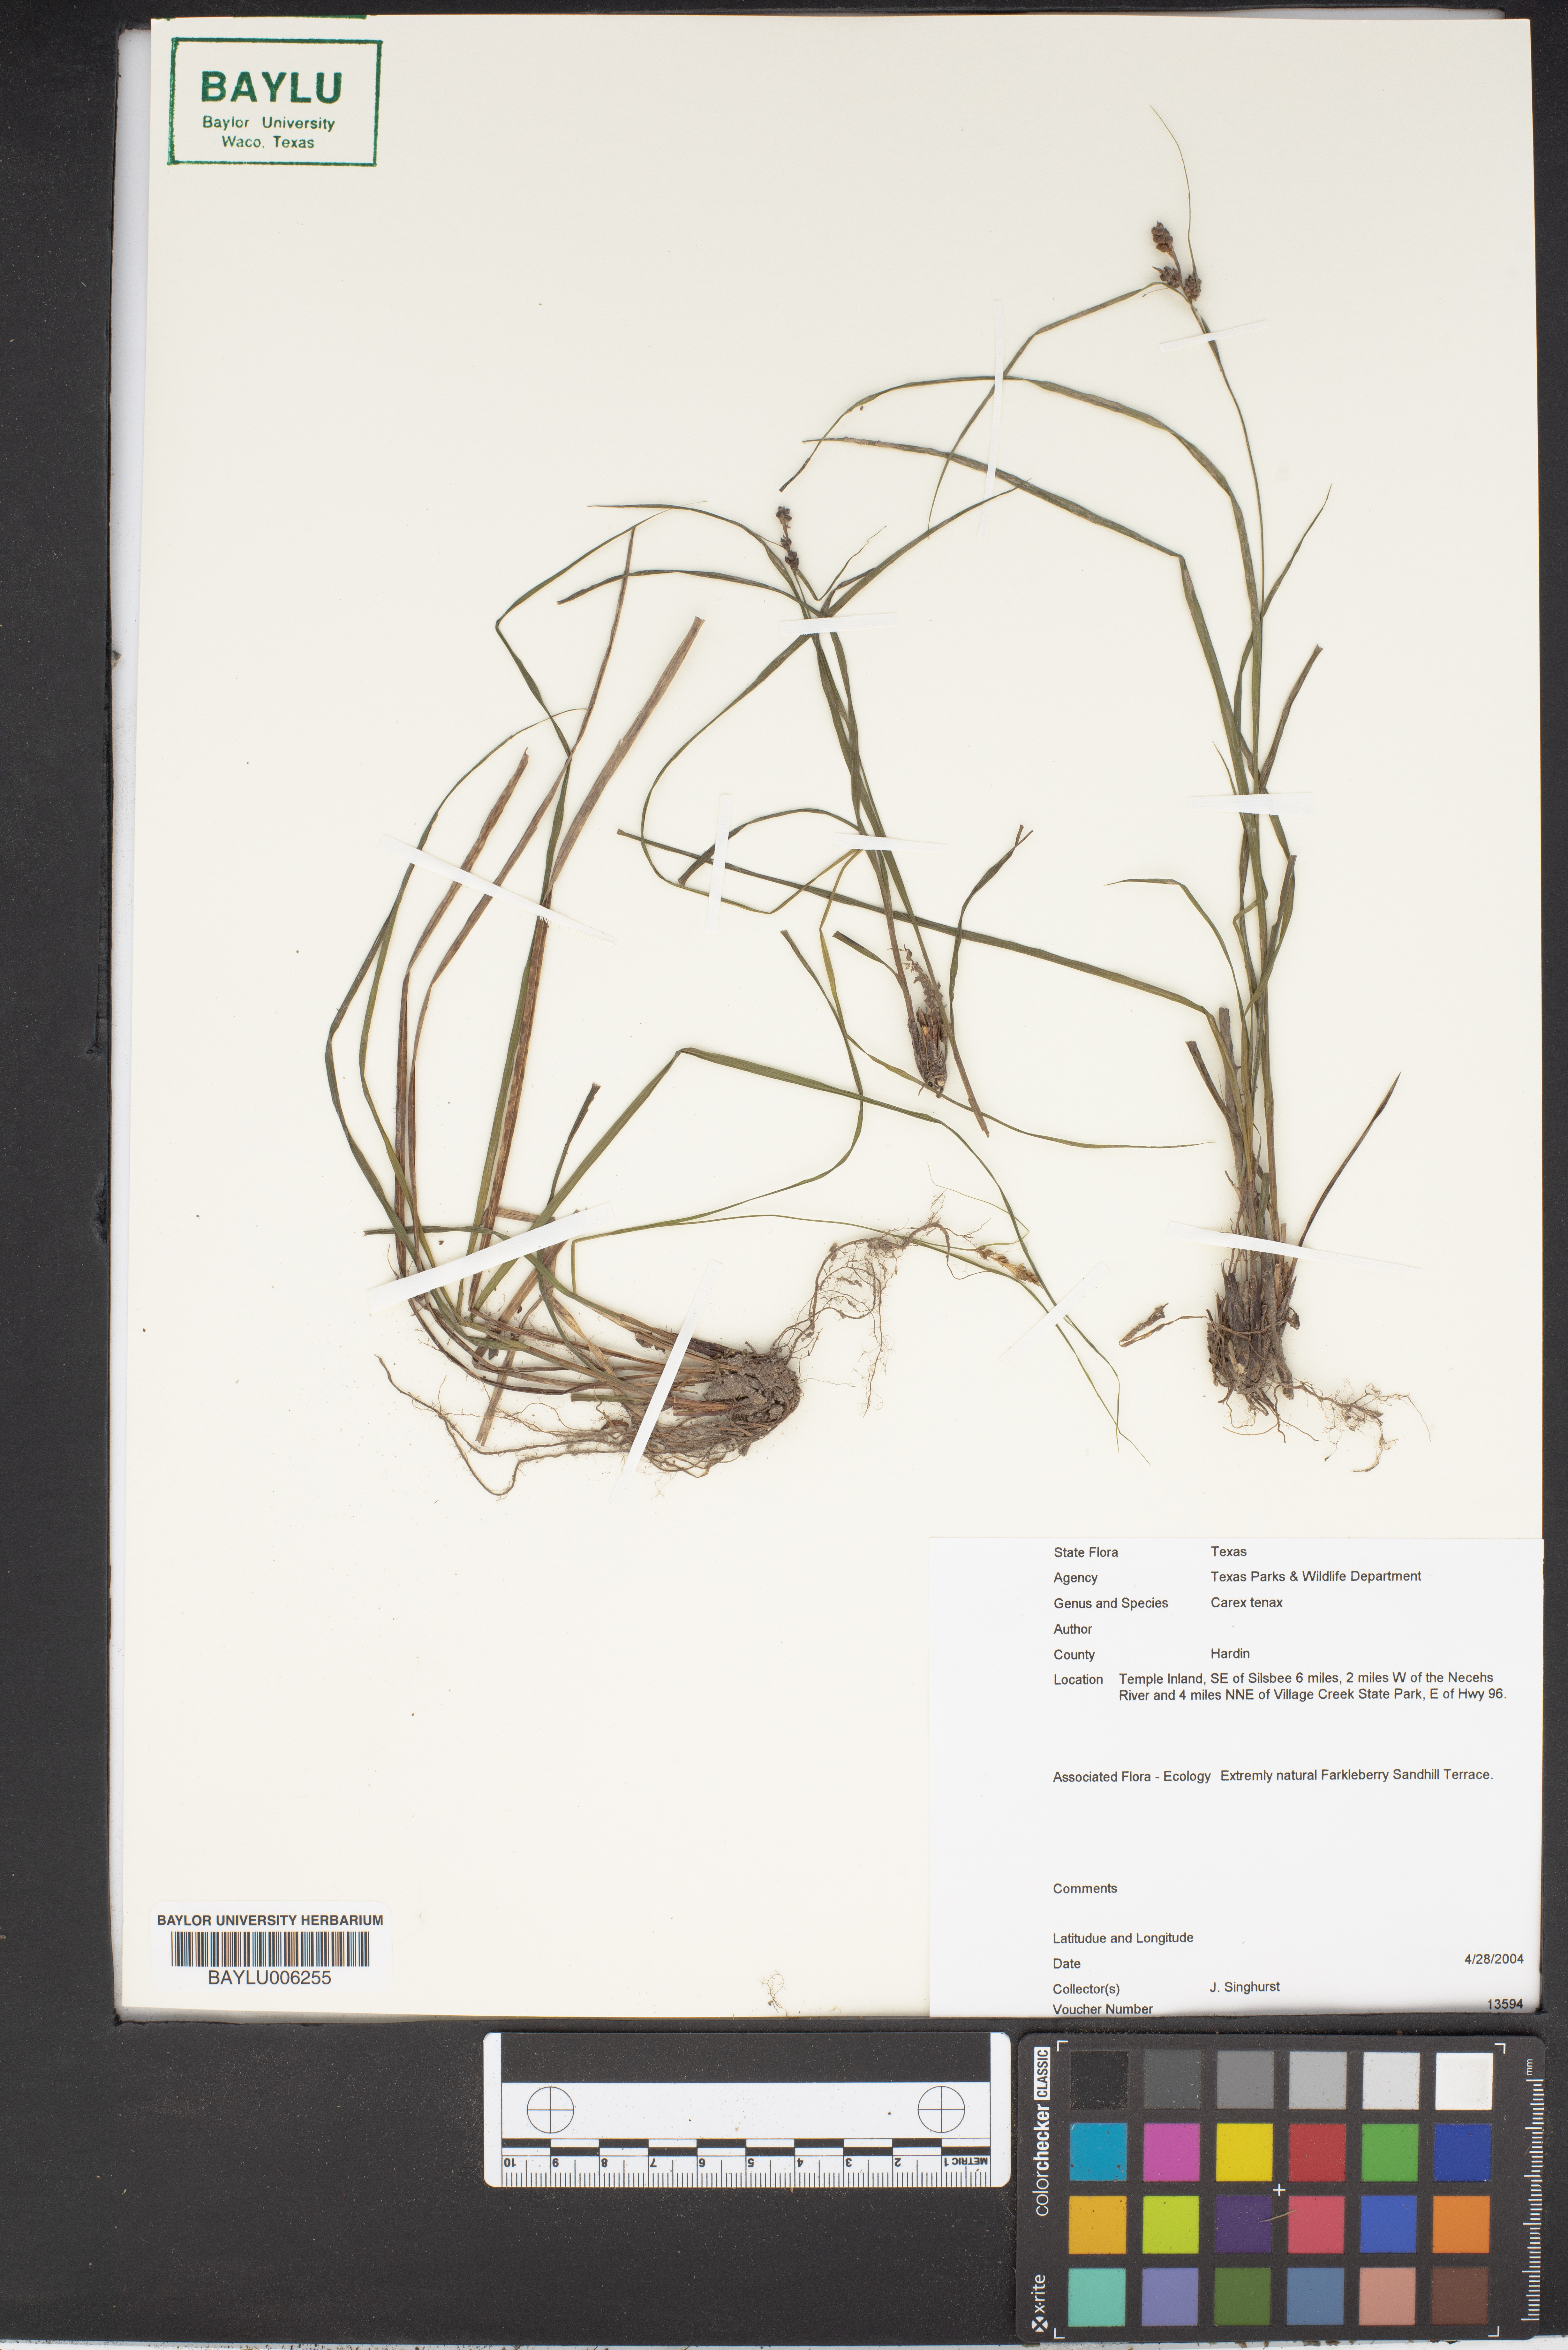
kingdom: Plantae
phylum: Tracheophyta
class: Liliopsida
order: Poales
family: Cyperaceae
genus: Carex
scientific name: Carex tenax
